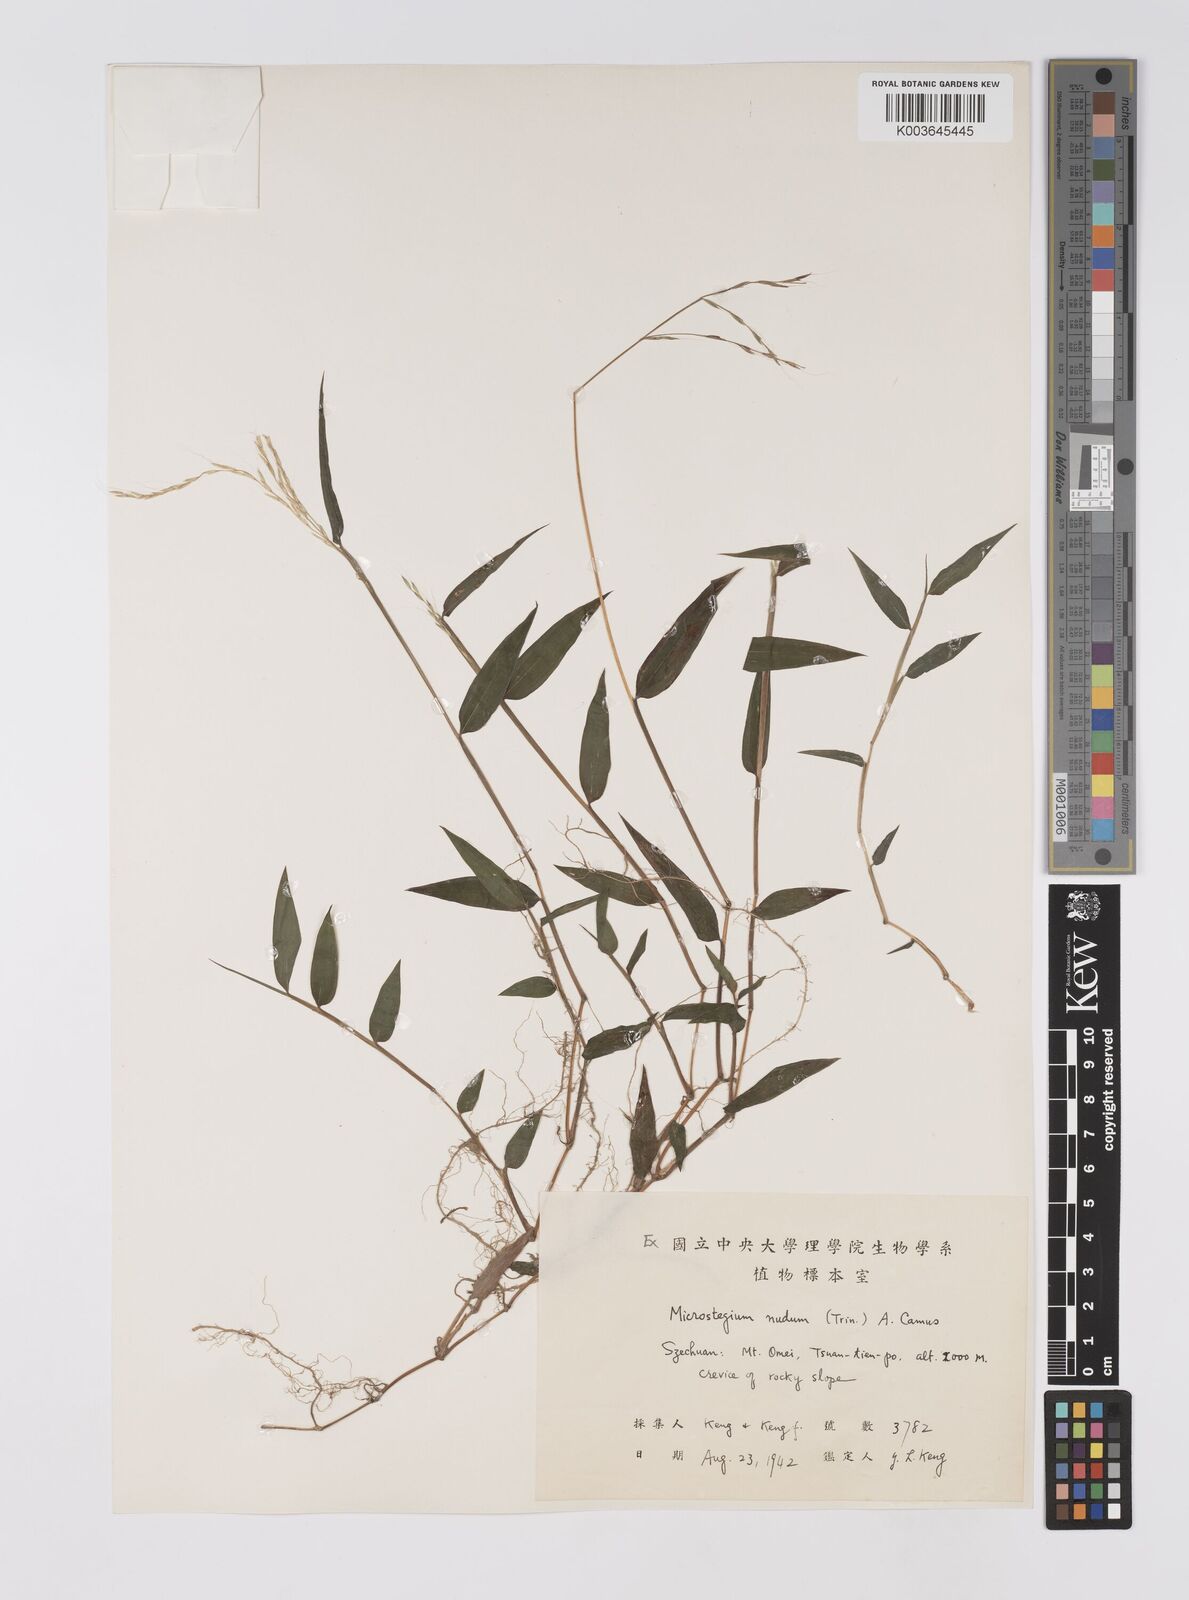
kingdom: Plantae
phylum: Tracheophyta
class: Liliopsida
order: Poales
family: Poaceae
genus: Microstegium
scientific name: Microstegium nudum
